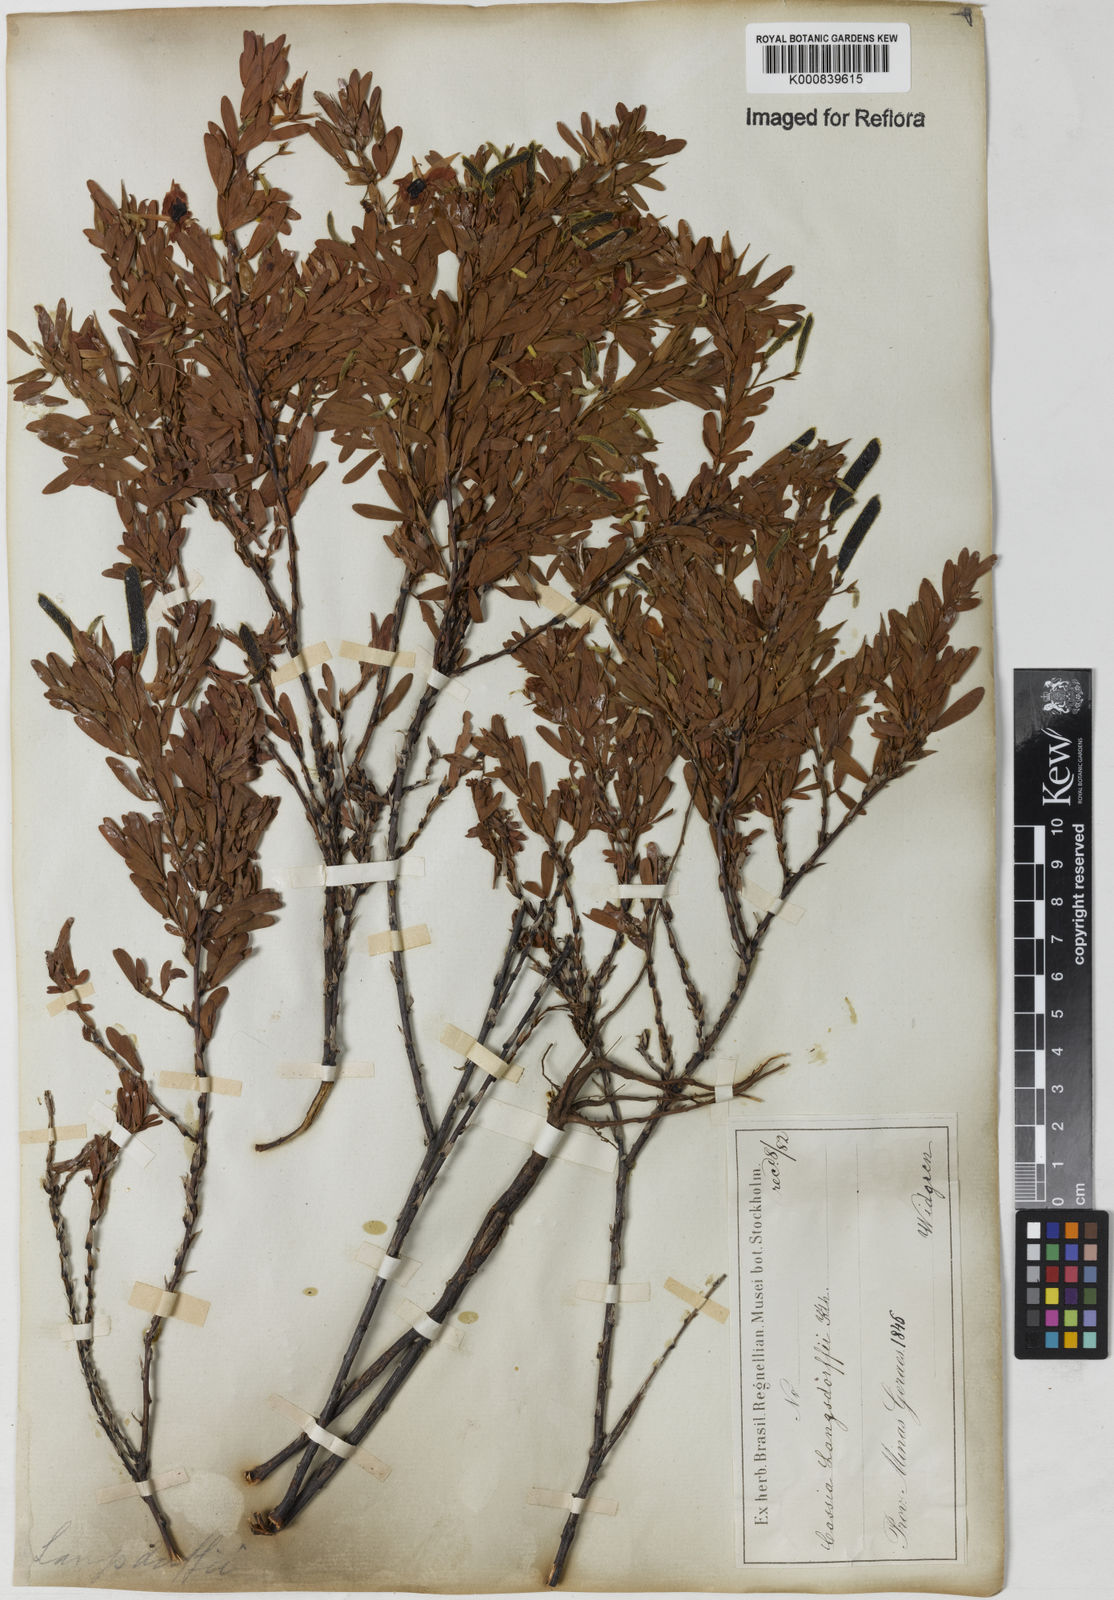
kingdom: Plantae
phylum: Tracheophyta
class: Magnoliopsida
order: Fabales
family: Fabaceae
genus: Chamaecrista
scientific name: Chamaecrista langsdorffii
